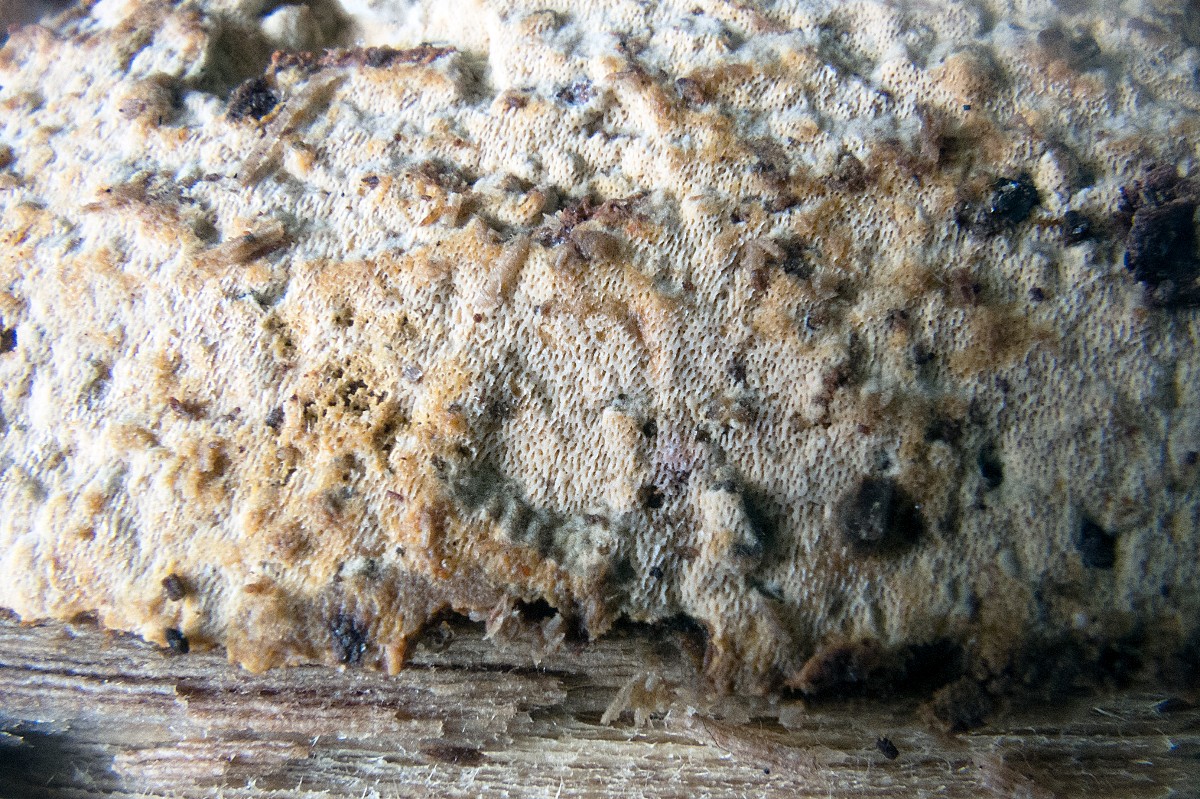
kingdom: Fungi
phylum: Basidiomycota
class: Agaricomycetes
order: Polyporales
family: Irpicaceae
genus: Ceriporia
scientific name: Ceriporia aurantiocarnescens
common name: orangerosa voksporesvamp
